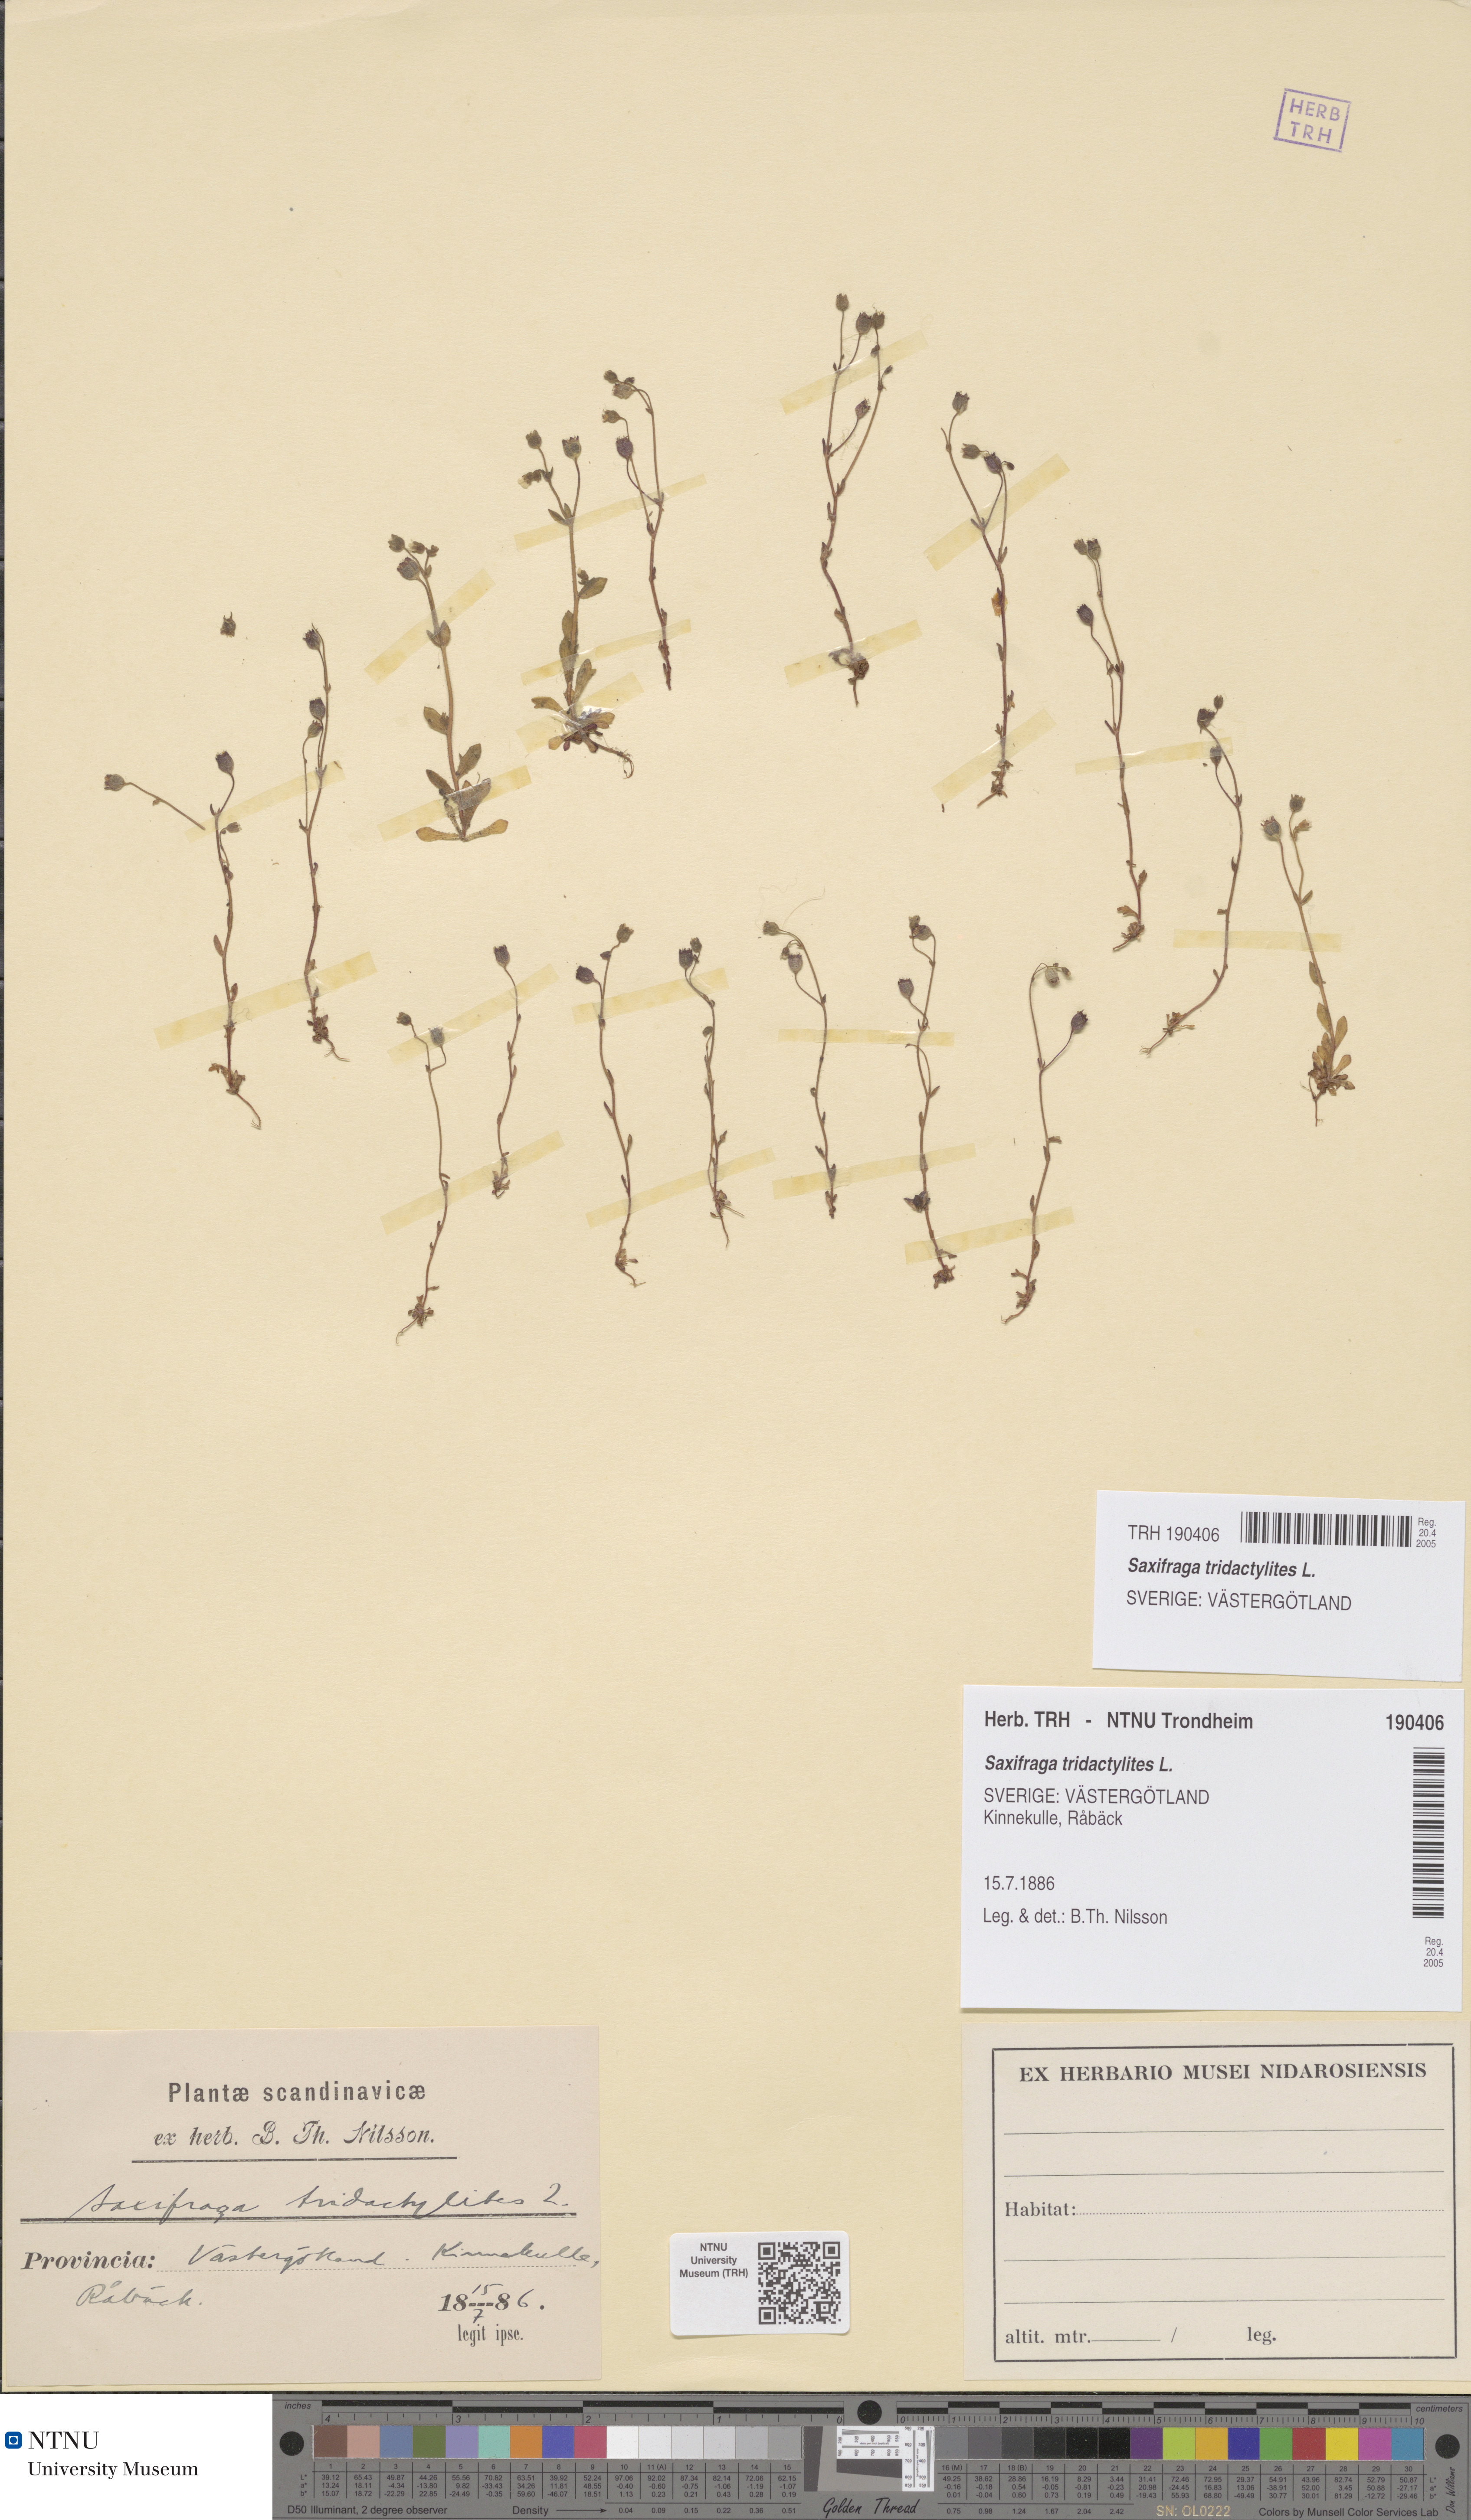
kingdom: Plantae
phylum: Tracheophyta
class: Magnoliopsida
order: Saxifragales
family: Saxifragaceae
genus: Saxifraga
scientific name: Saxifraga tridactylites
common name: Rue-leaved saxifrage
